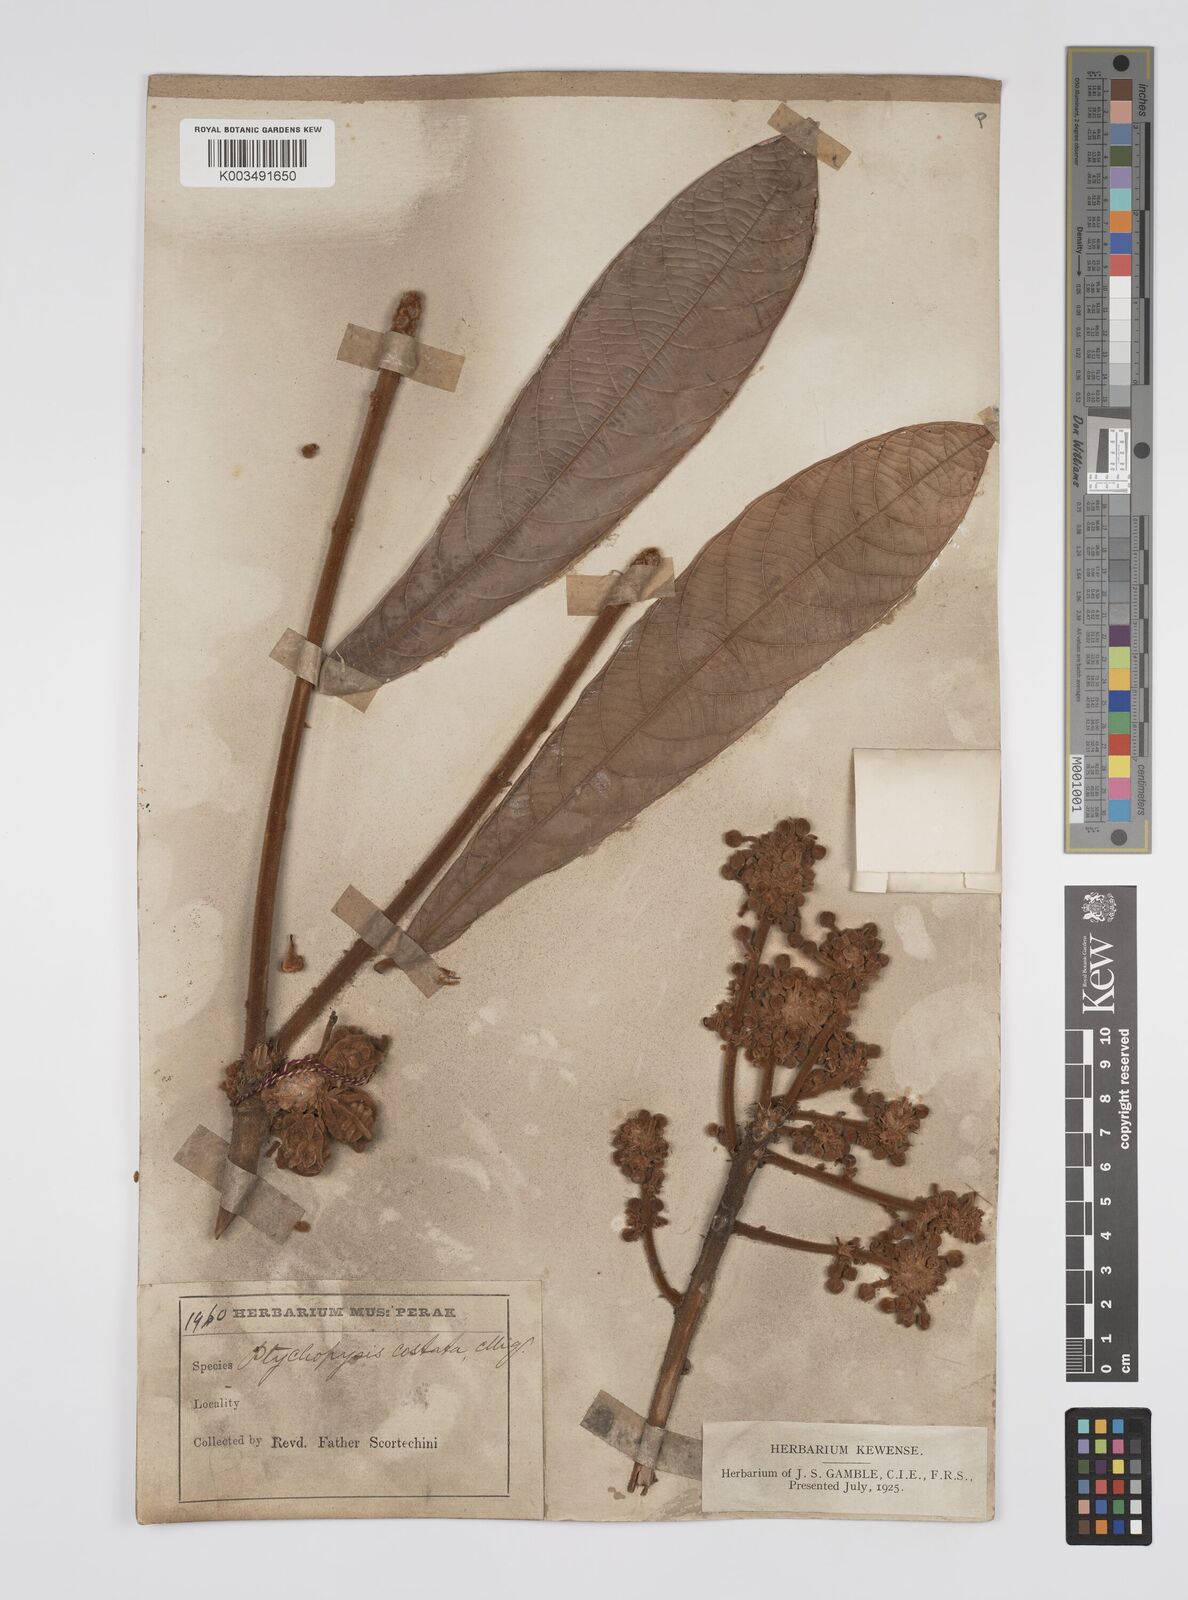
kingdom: Plantae
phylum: Tracheophyta
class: Magnoliopsida
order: Malpighiales
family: Euphorbiaceae
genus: Ptychopyxis
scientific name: Ptychopyxis costata
